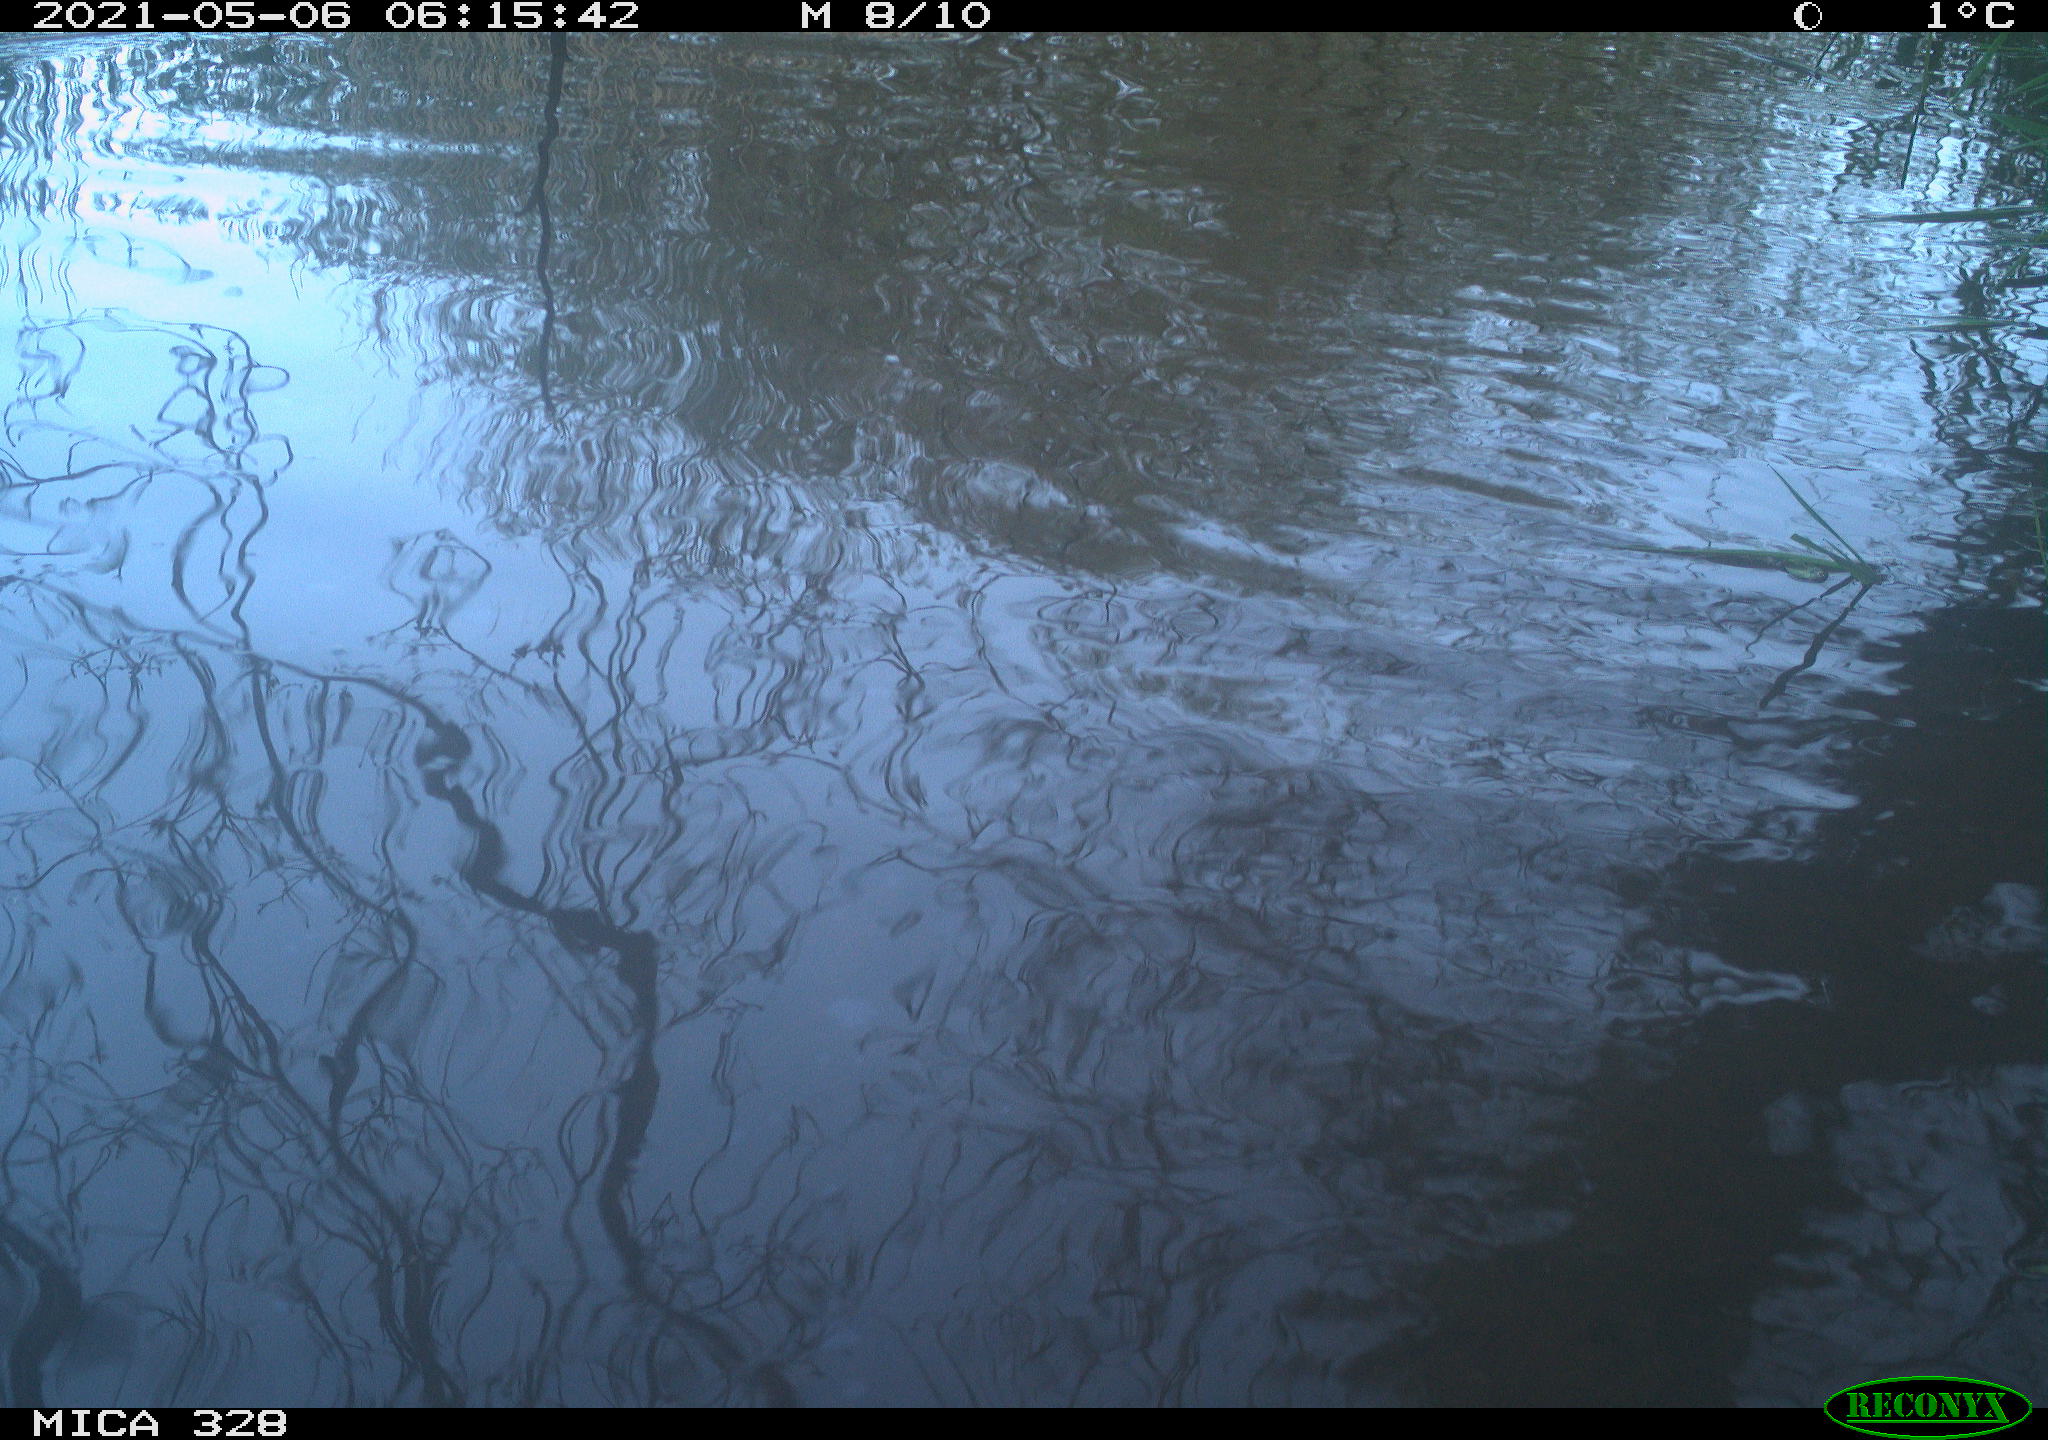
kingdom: Animalia
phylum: Chordata
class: Aves
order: Anseriformes
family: Anatidae
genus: Anas
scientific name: Anas platyrhynchos
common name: Mallard
